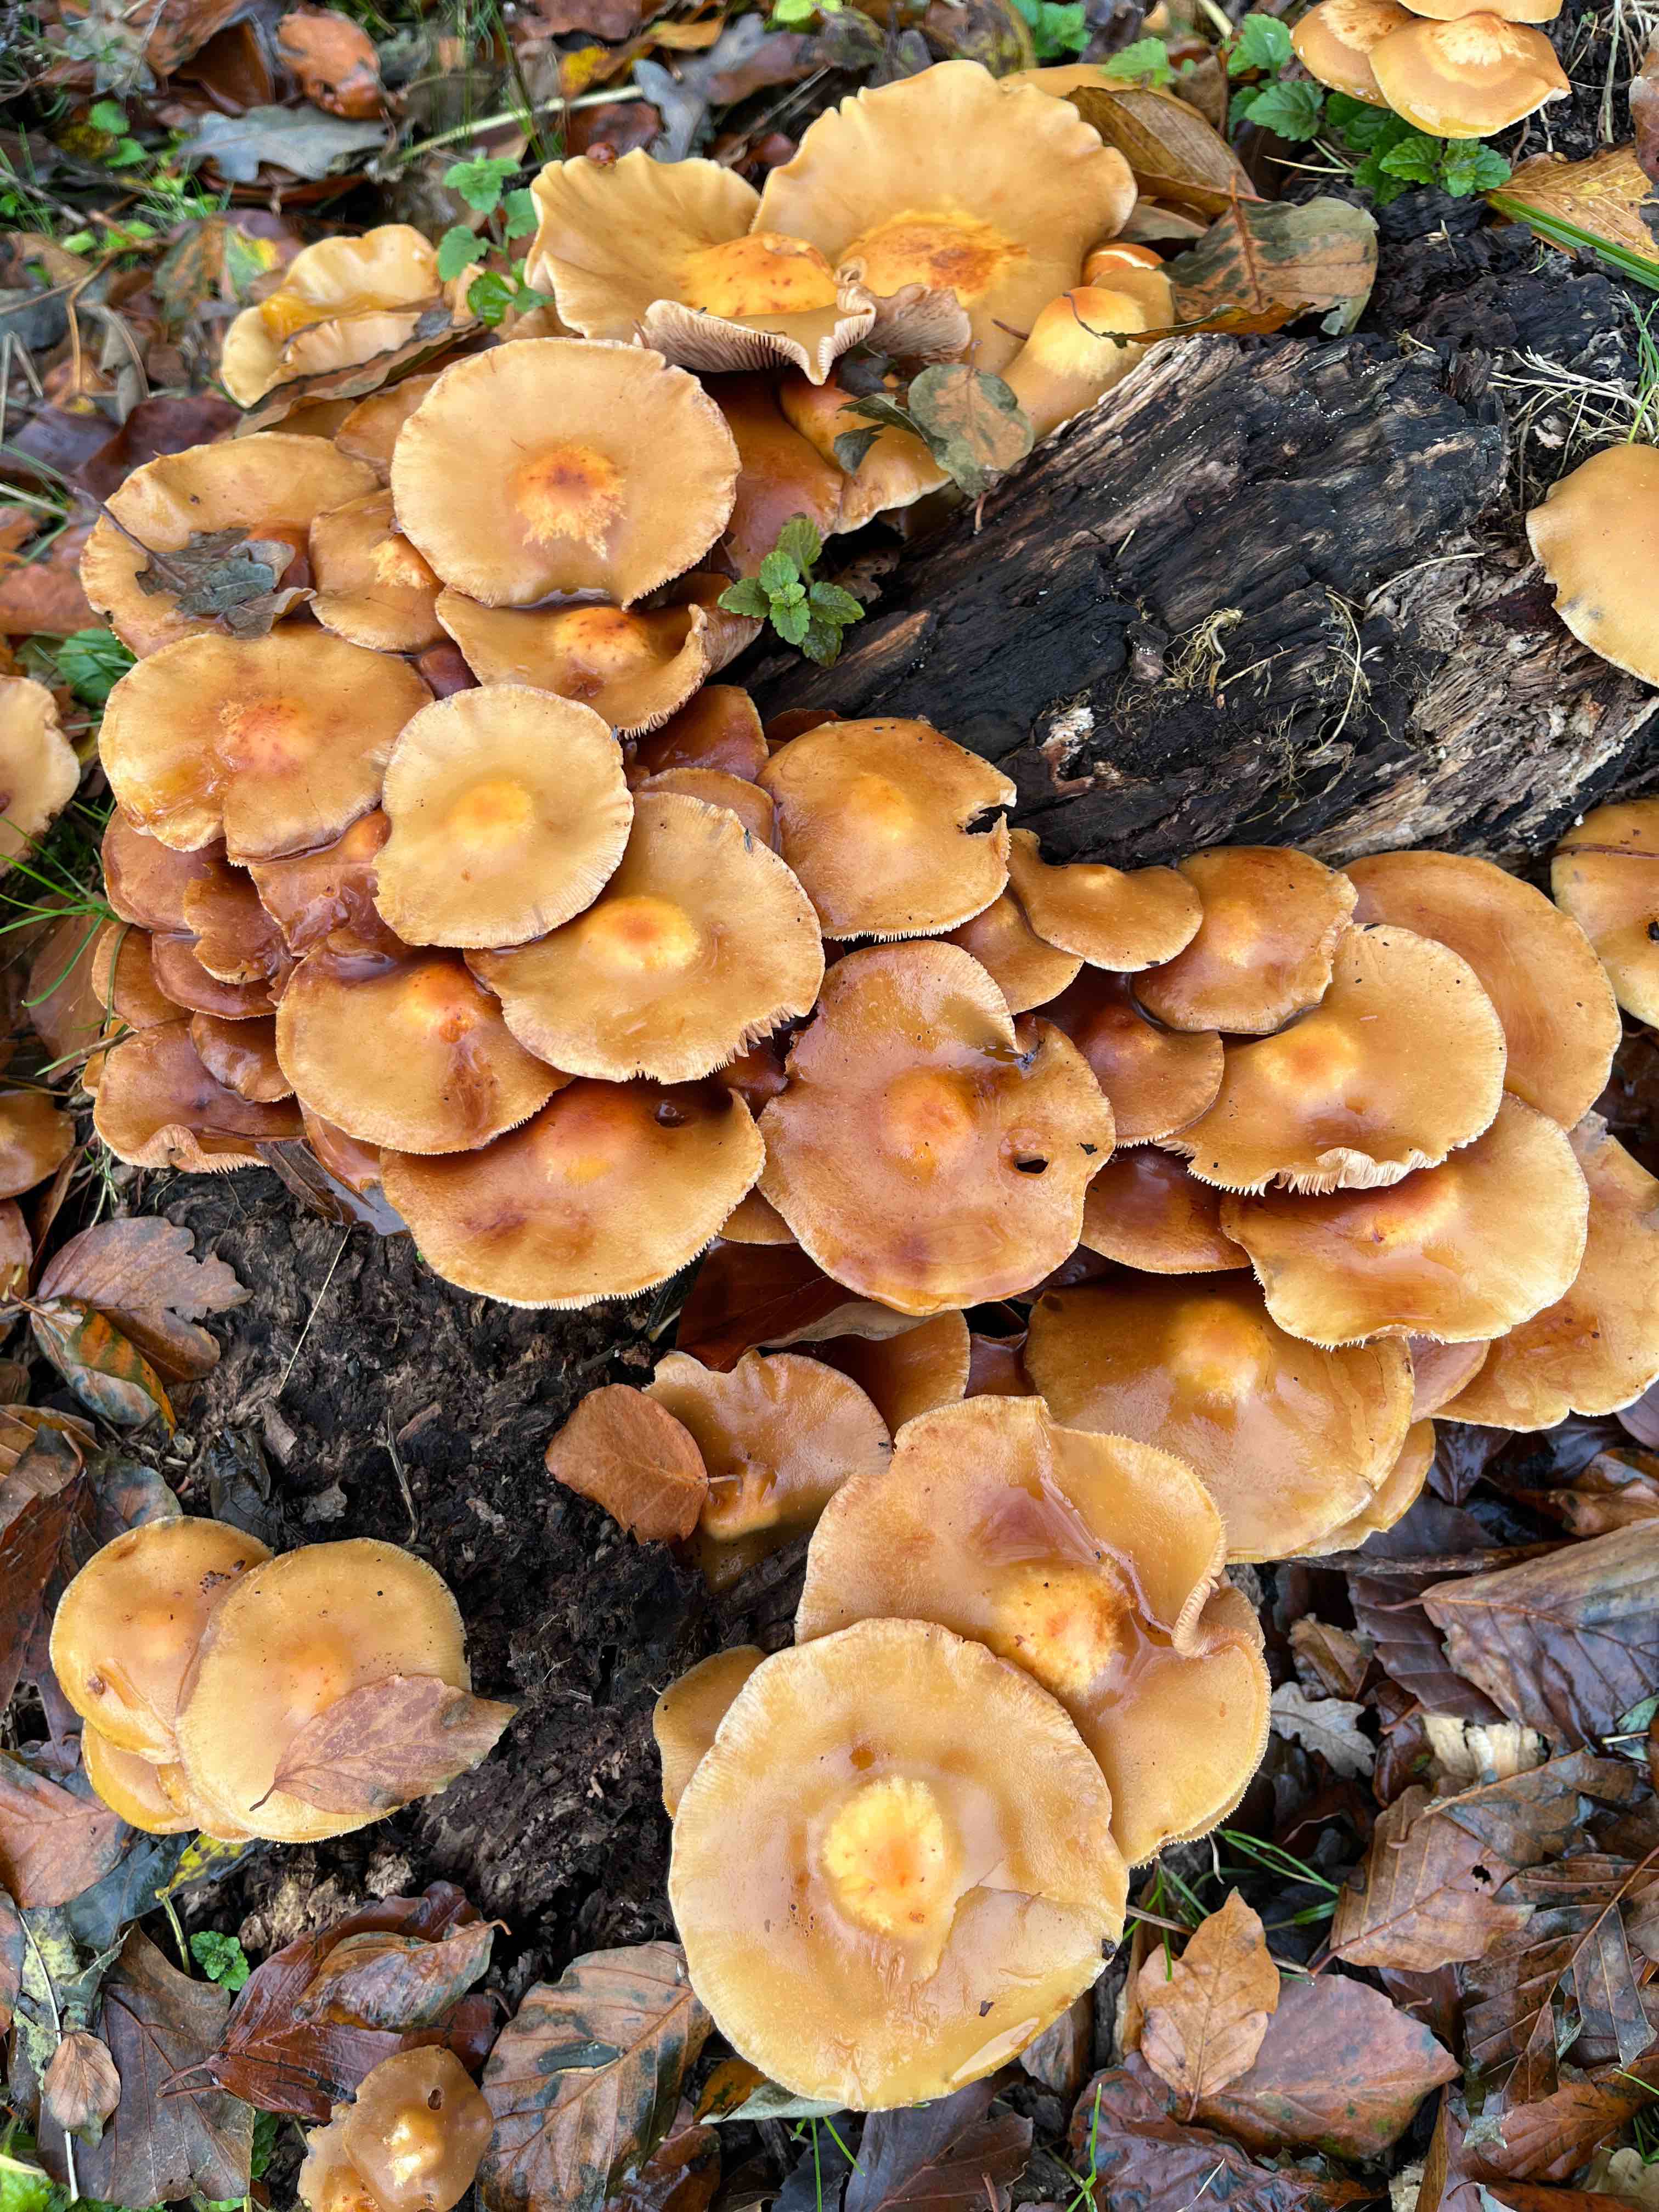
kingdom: Fungi
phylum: Basidiomycota
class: Agaricomycetes
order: Agaricales
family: Strophariaceae
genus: Kuehneromyces
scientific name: Kuehneromyces mutabilis
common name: foranderlig skælhat
